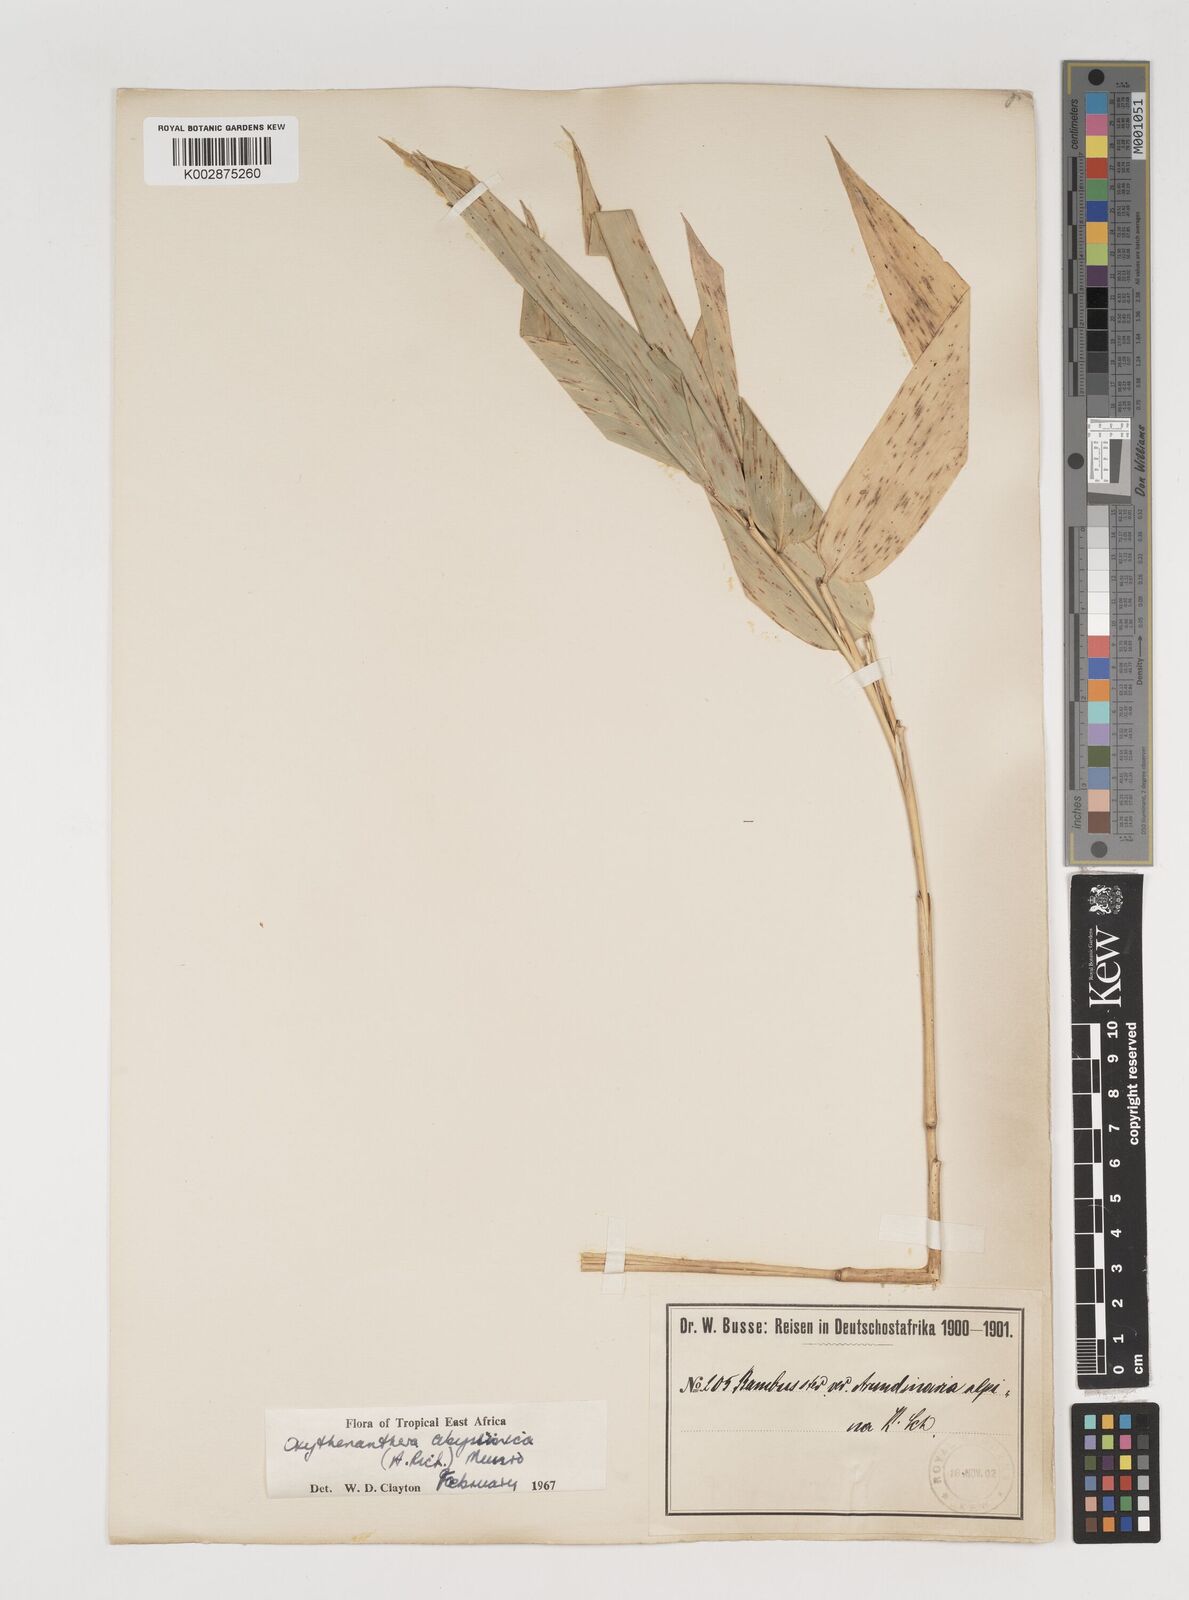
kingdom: Plantae
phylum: Tracheophyta
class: Liliopsida
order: Poales
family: Poaceae
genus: Oxytenanthera
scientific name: Oxytenanthera abyssinica
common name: Wine bamboo
